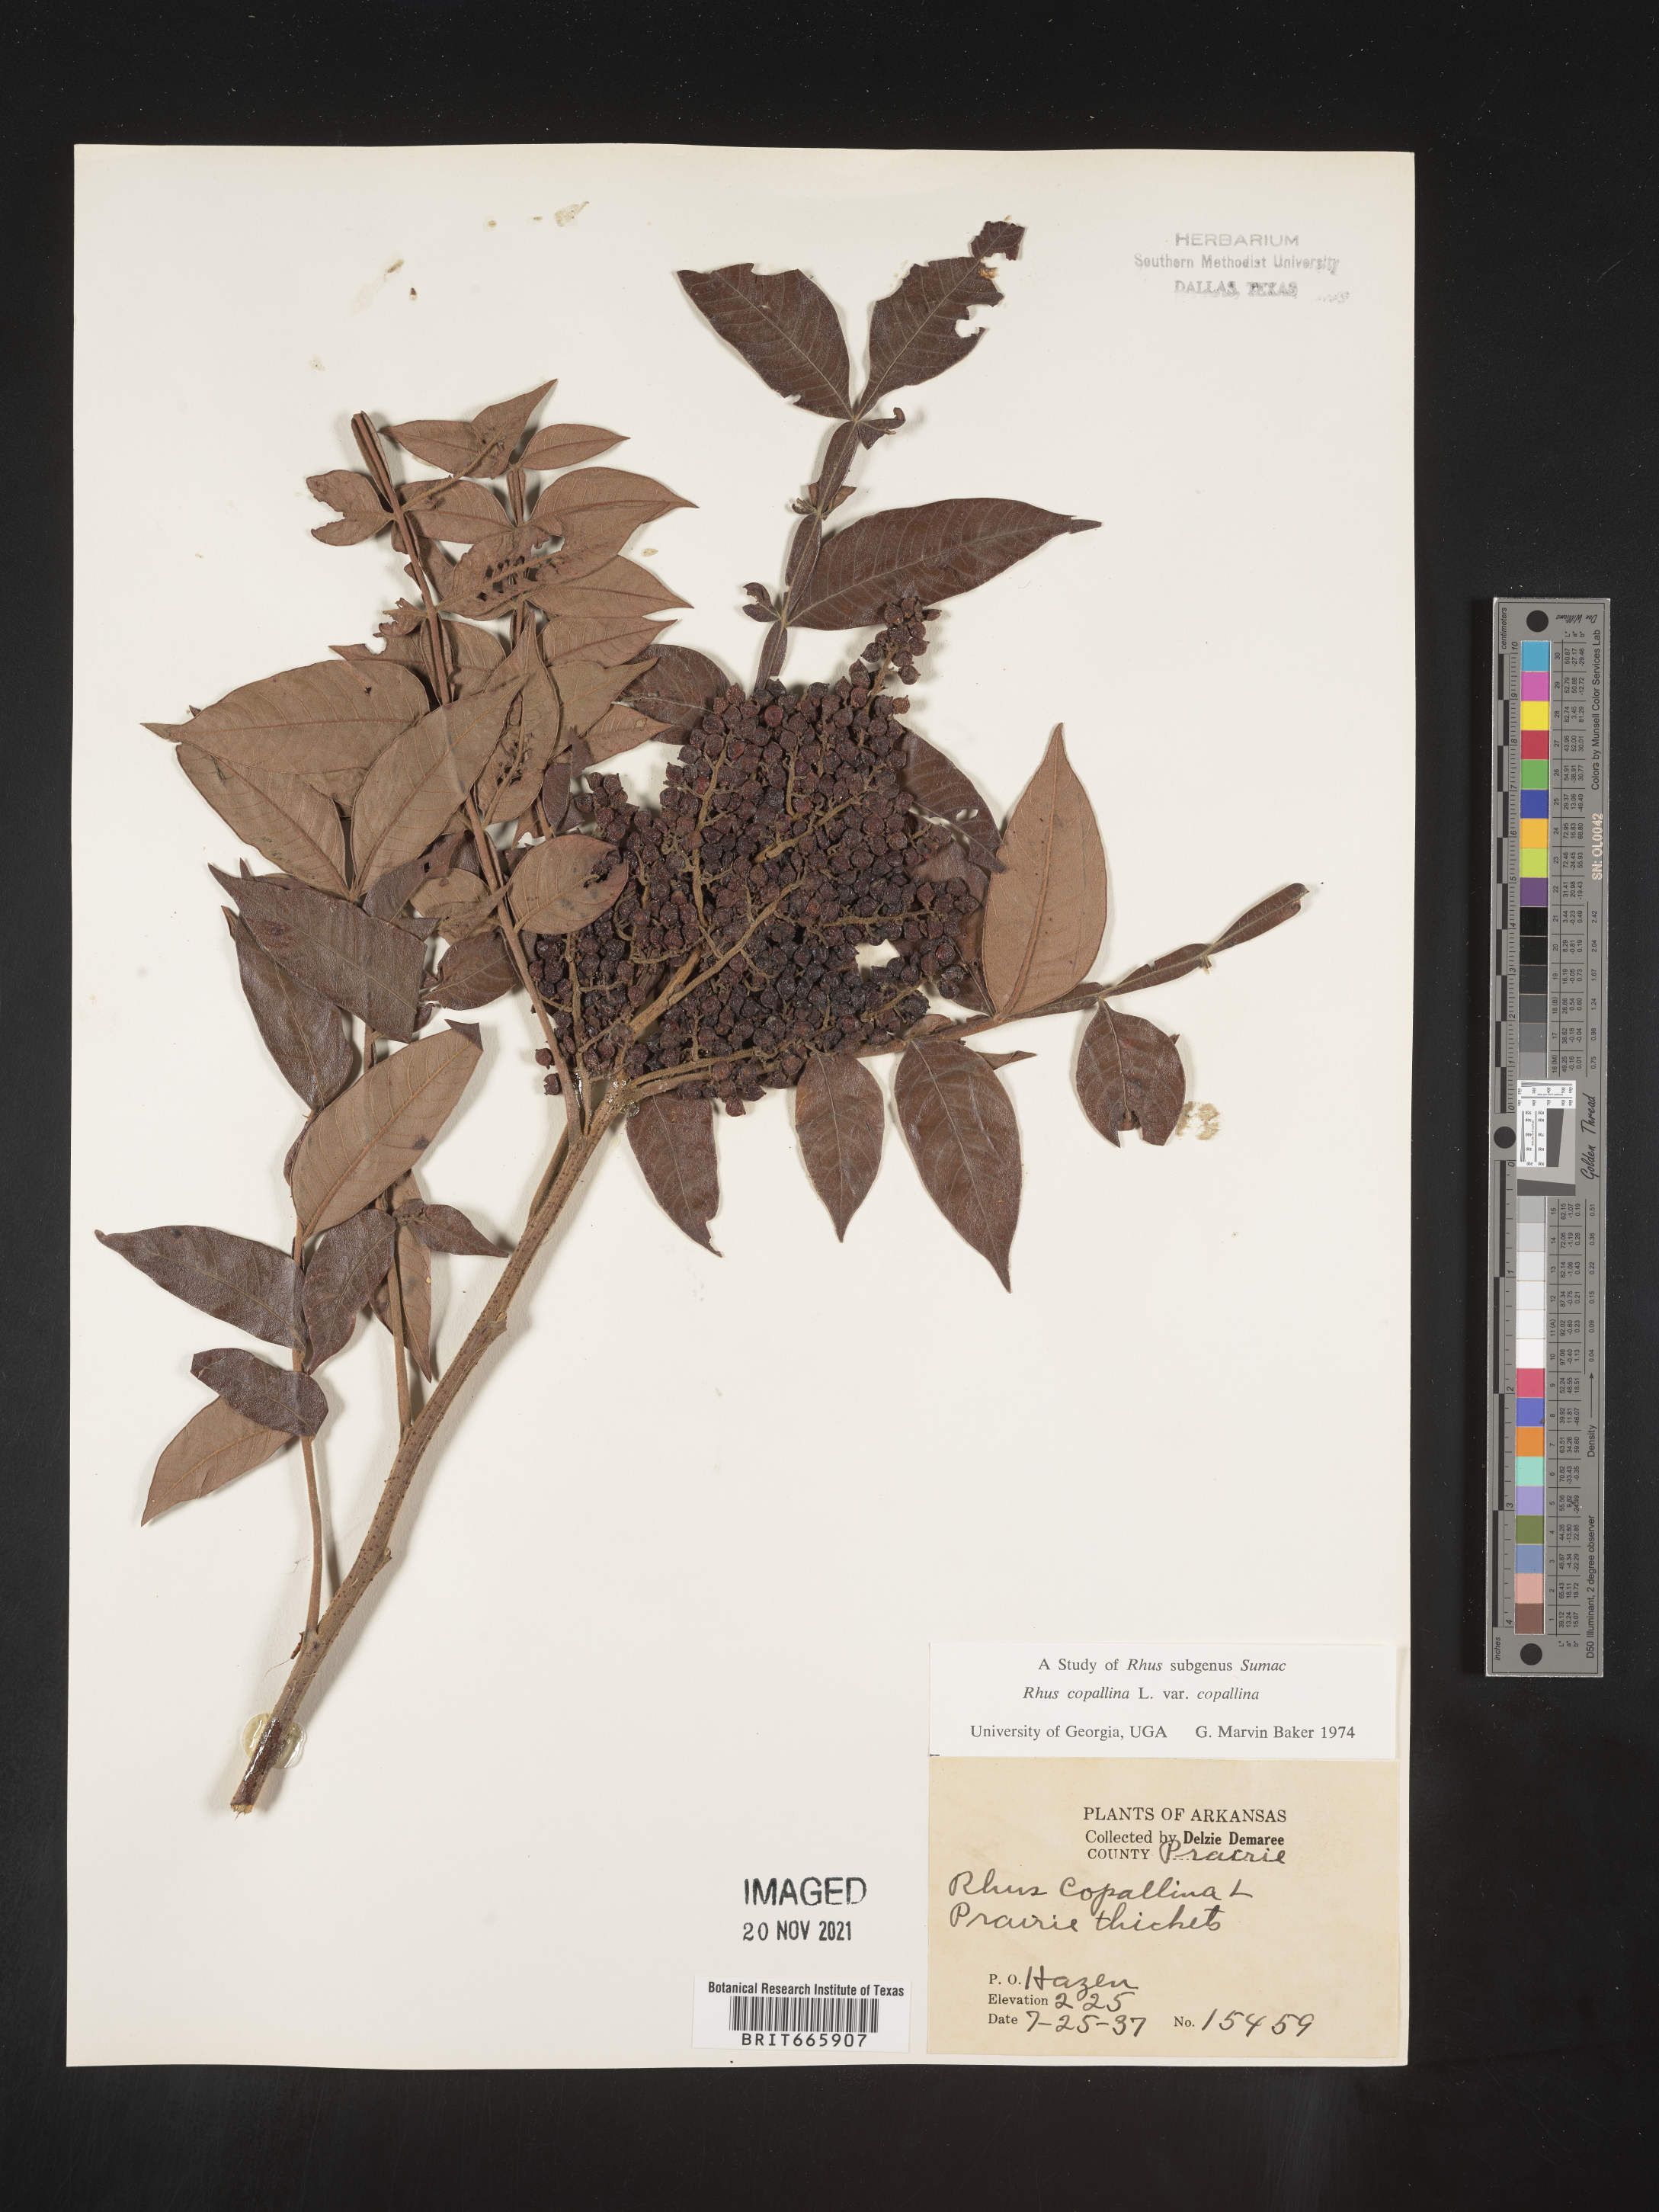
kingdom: Plantae
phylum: Tracheophyta
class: Magnoliopsida
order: Sapindales
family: Anacardiaceae
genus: Rhus
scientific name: Rhus copallina
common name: Shining sumac
